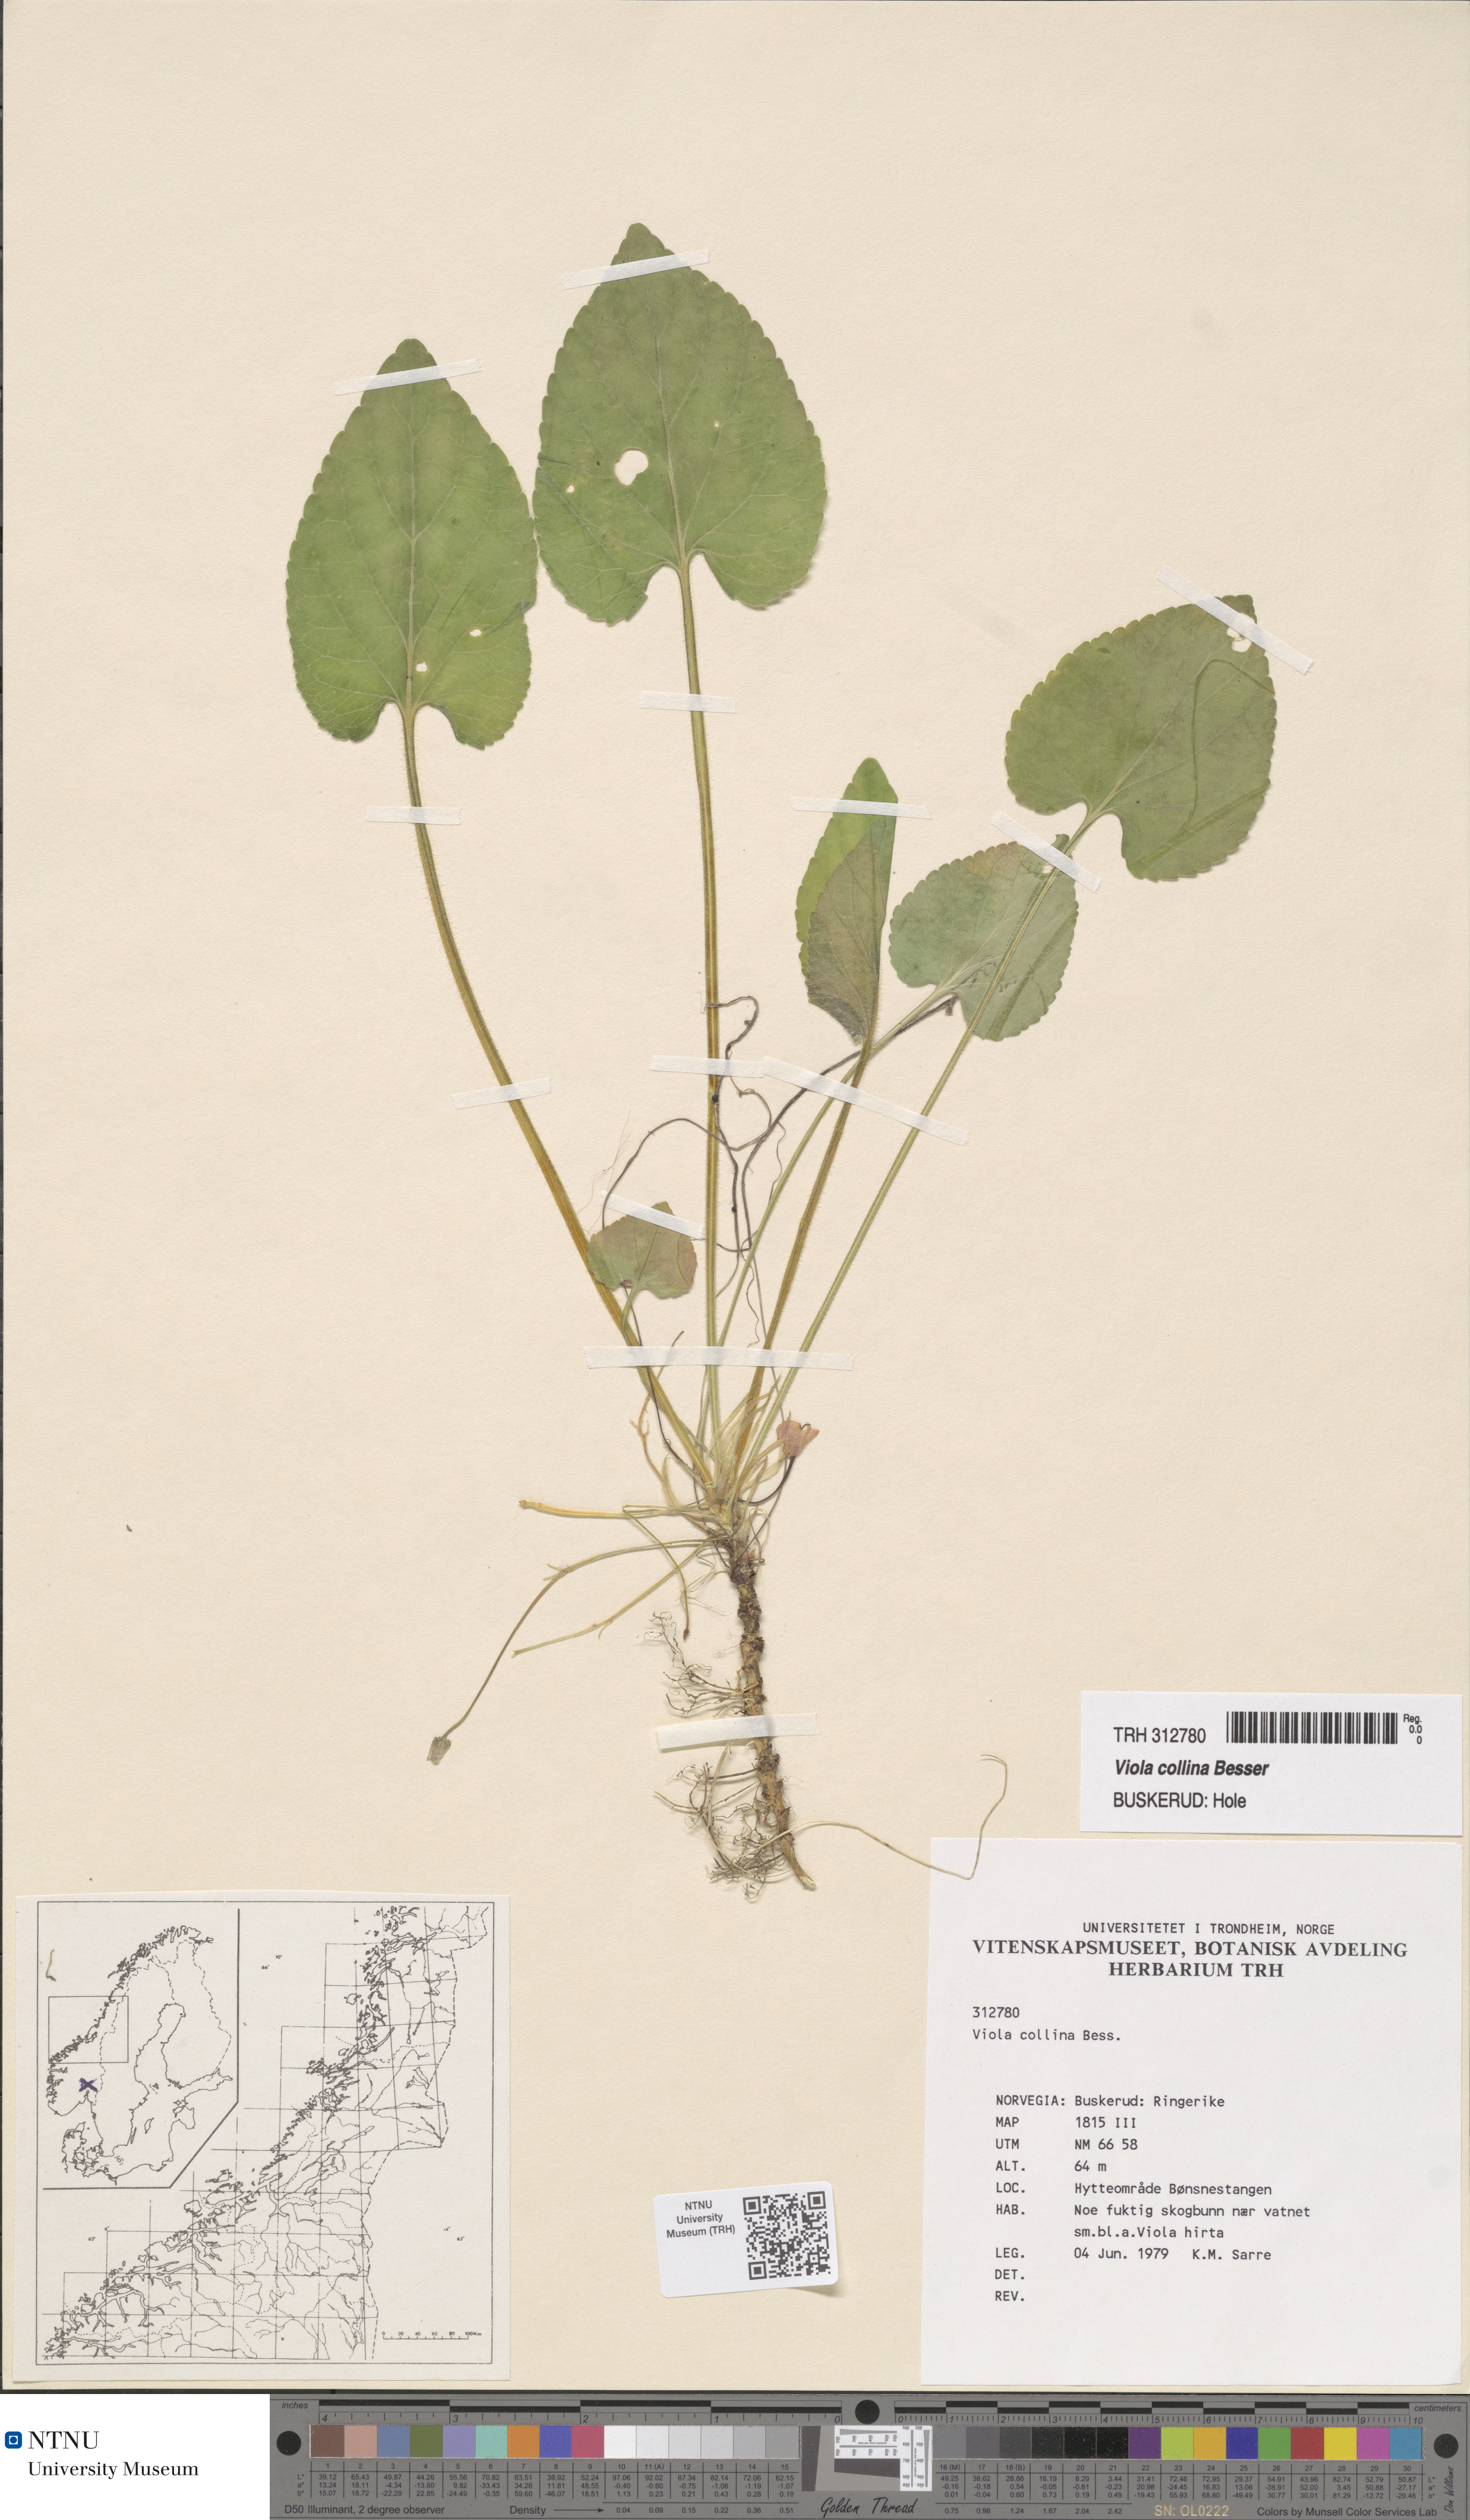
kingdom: Plantae
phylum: Tracheophyta
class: Magnoliopsida
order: Malpighiales
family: Violaceae
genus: Viola
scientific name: Viola collina
